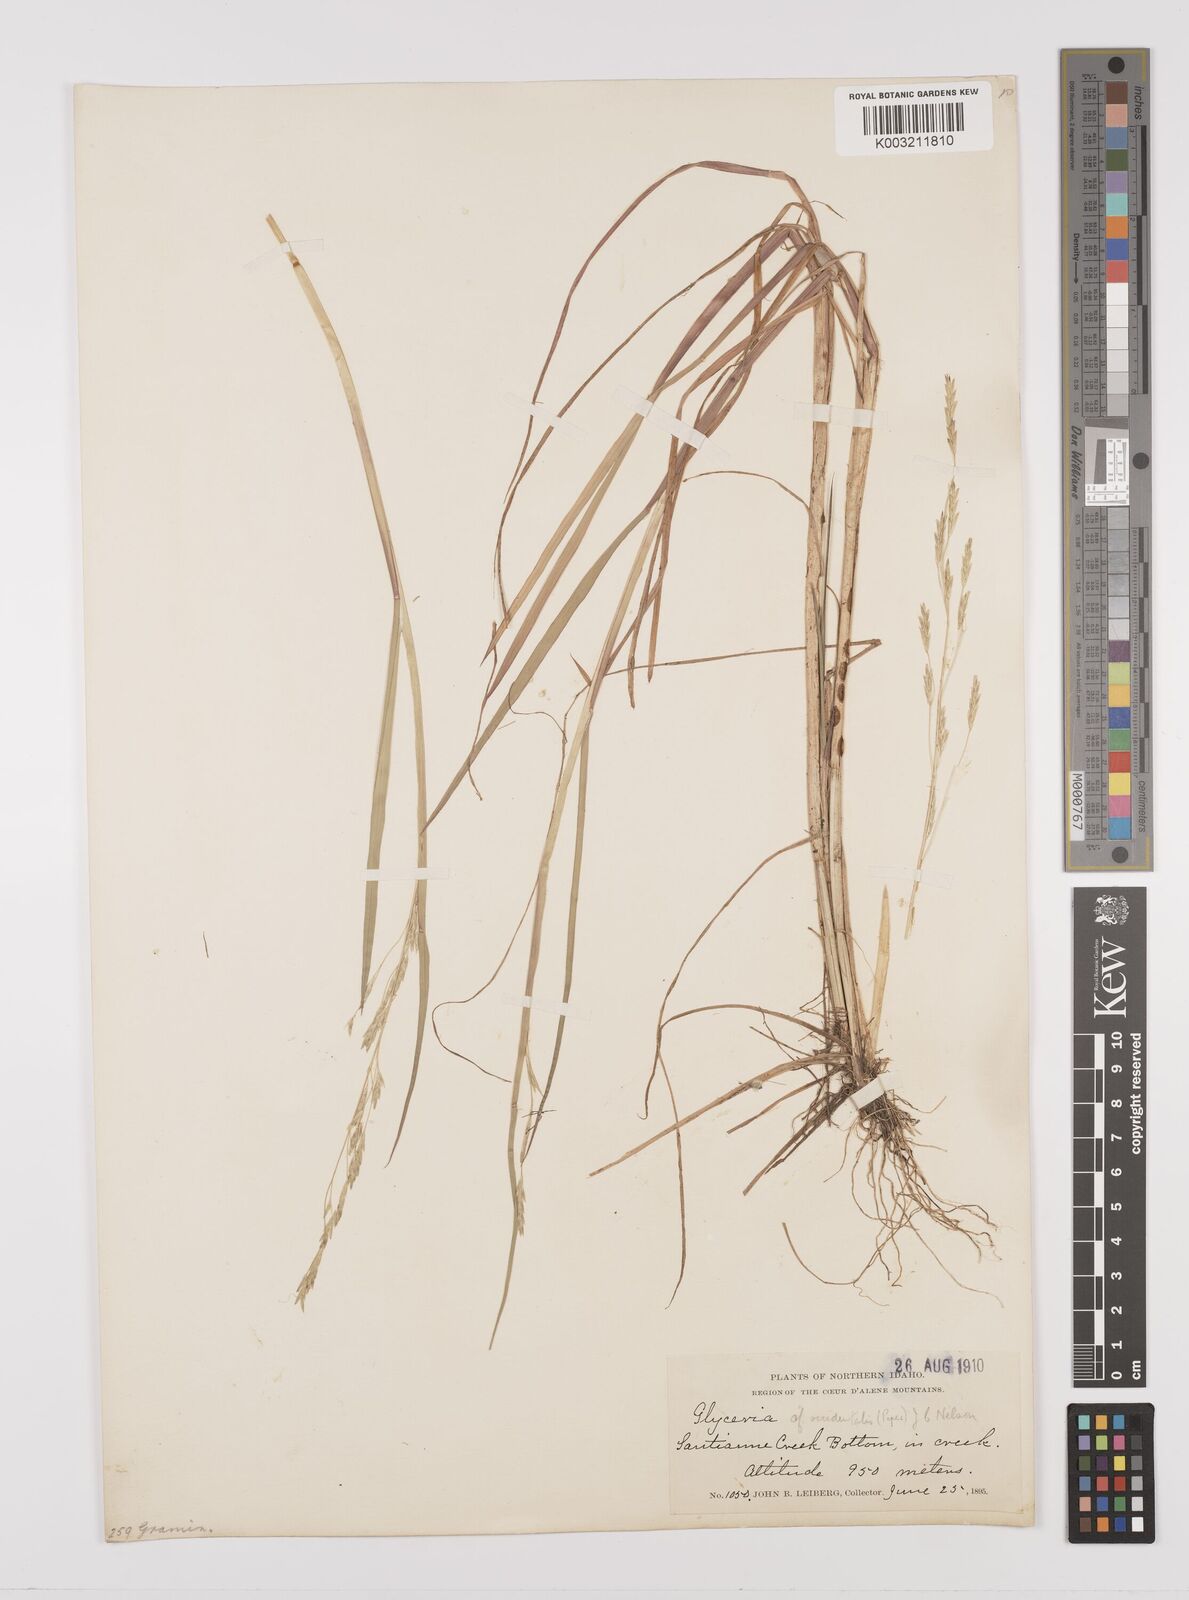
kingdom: Plantae
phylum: Tracheophyta
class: Liliopsida
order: Poales
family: Poaceae
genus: Glyceria
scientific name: Glyceria occidentalis
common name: Western manna grass
